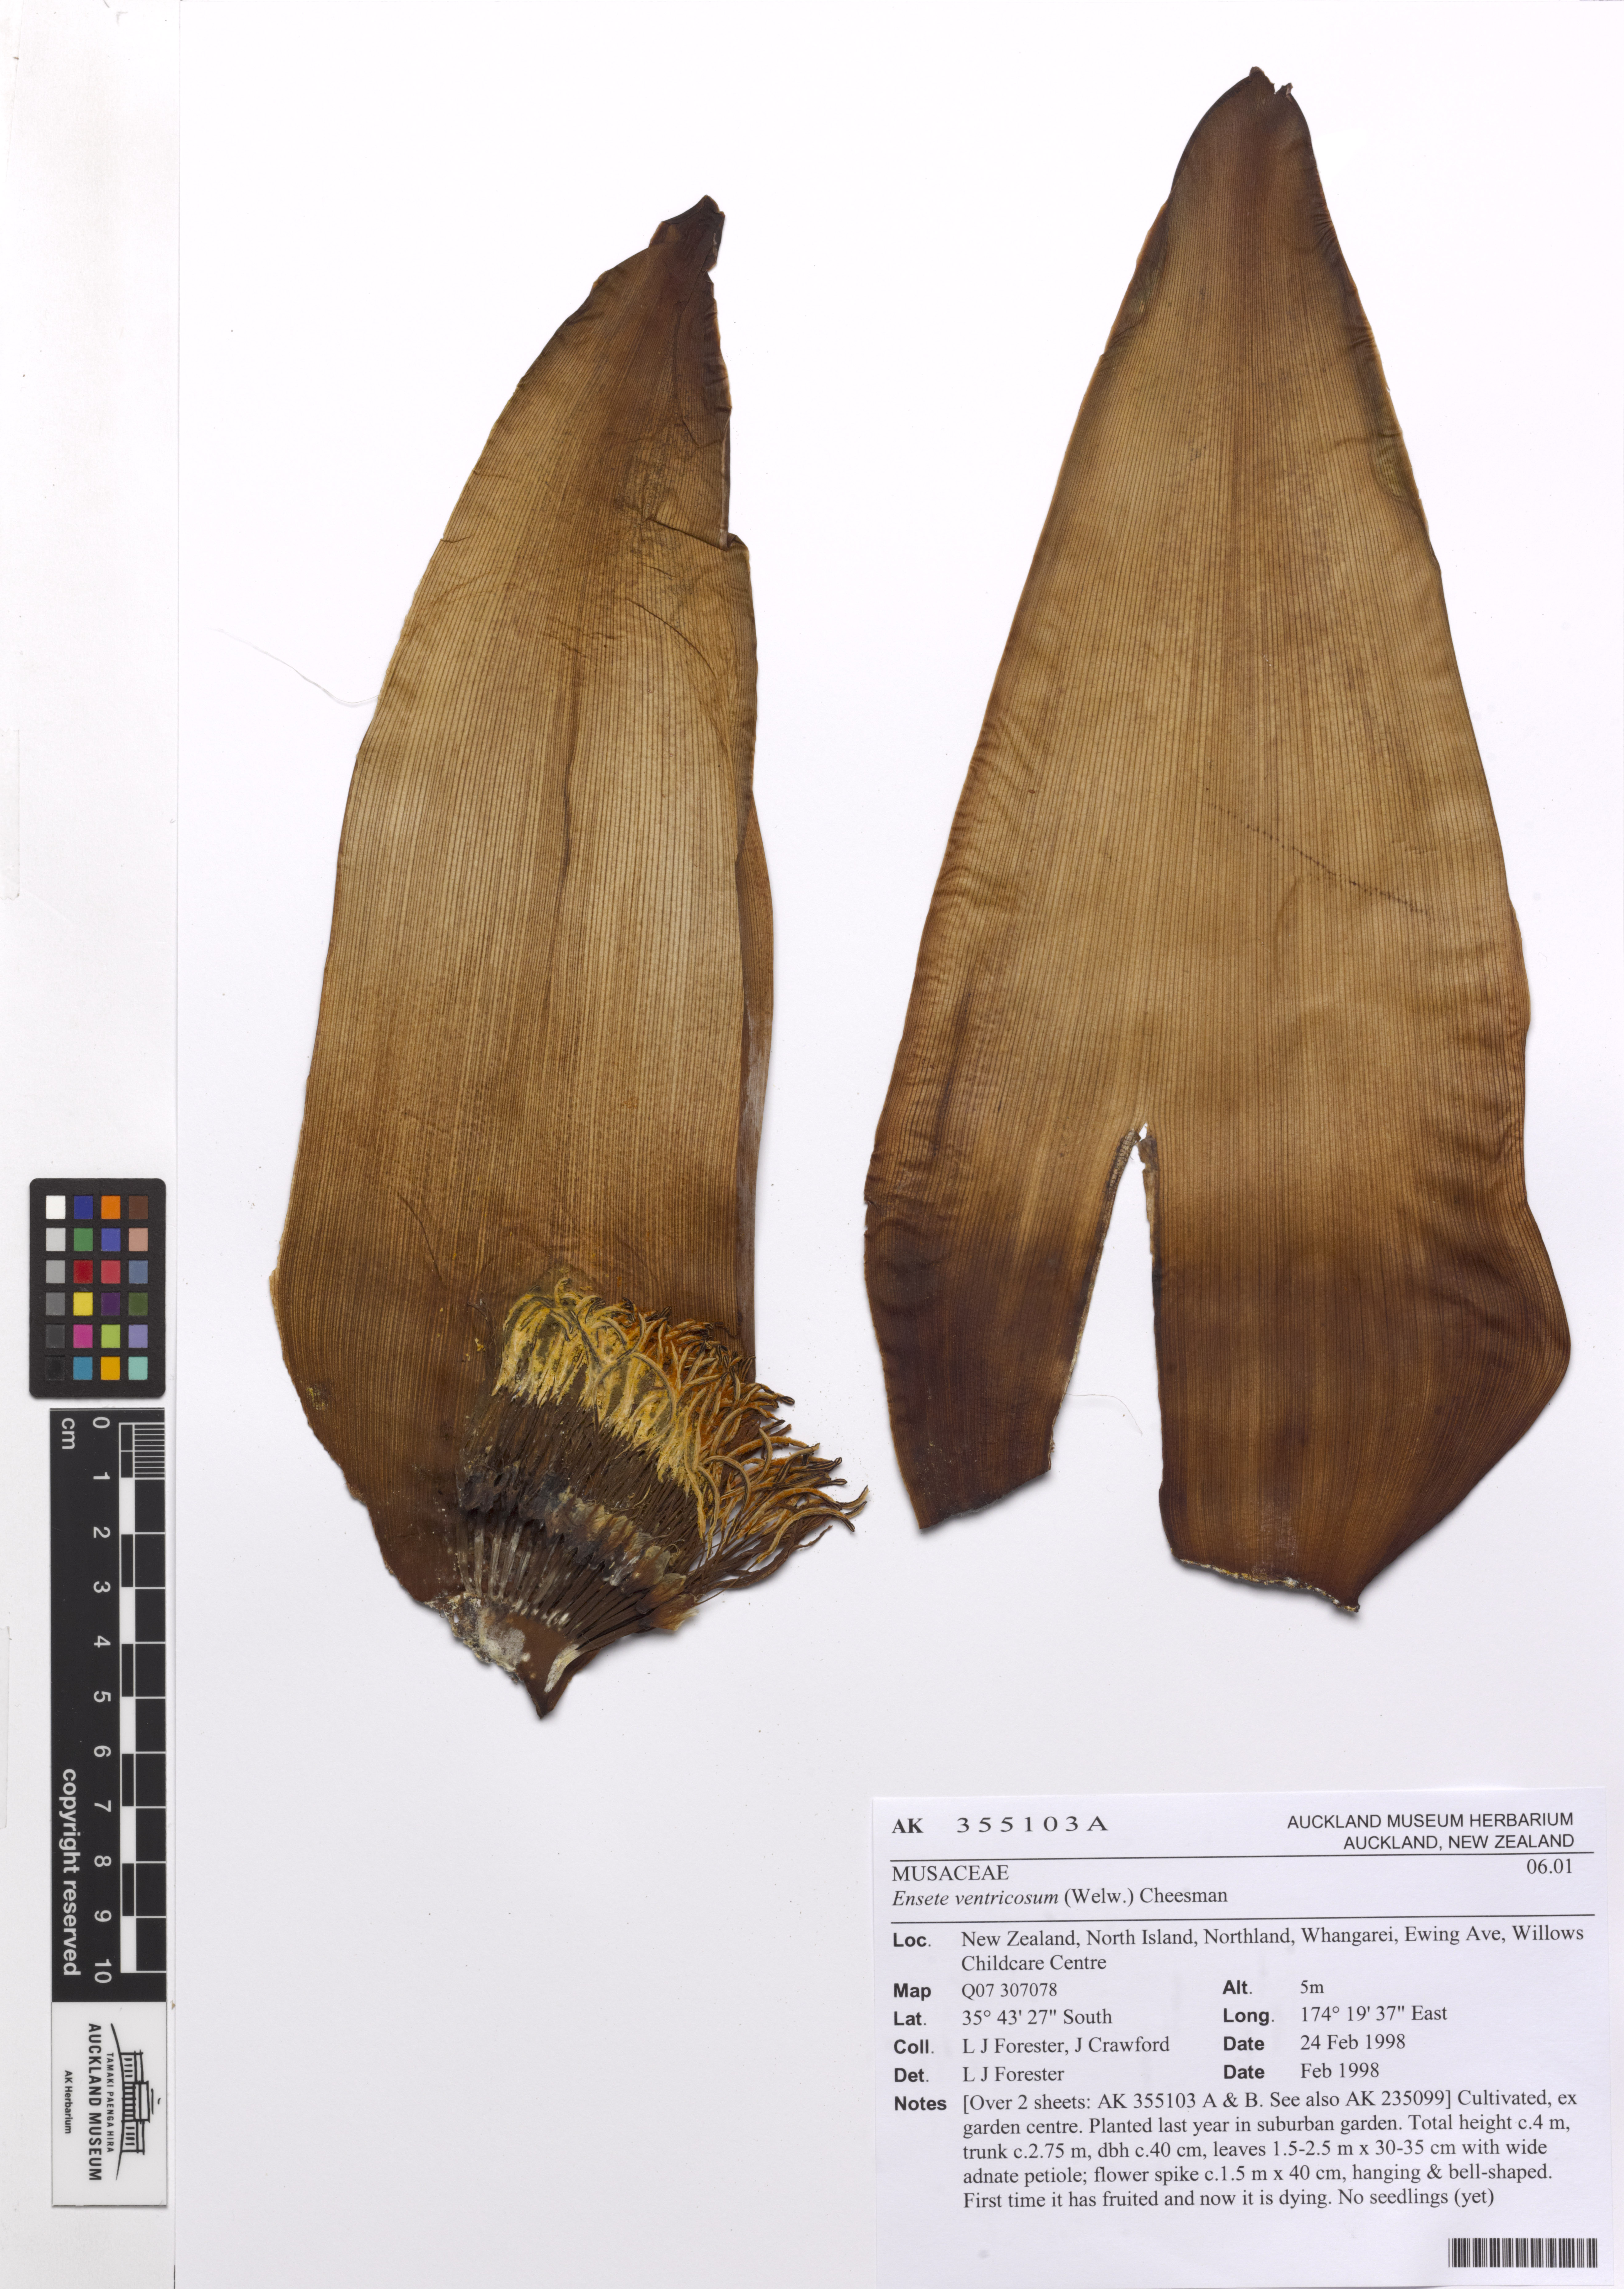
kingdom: Plantae
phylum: Tracheophyta
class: Liliopsida
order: Zingiberales
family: Musaceae
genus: Ensete
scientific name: Ensete ventricosum
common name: Abyssinian banana
